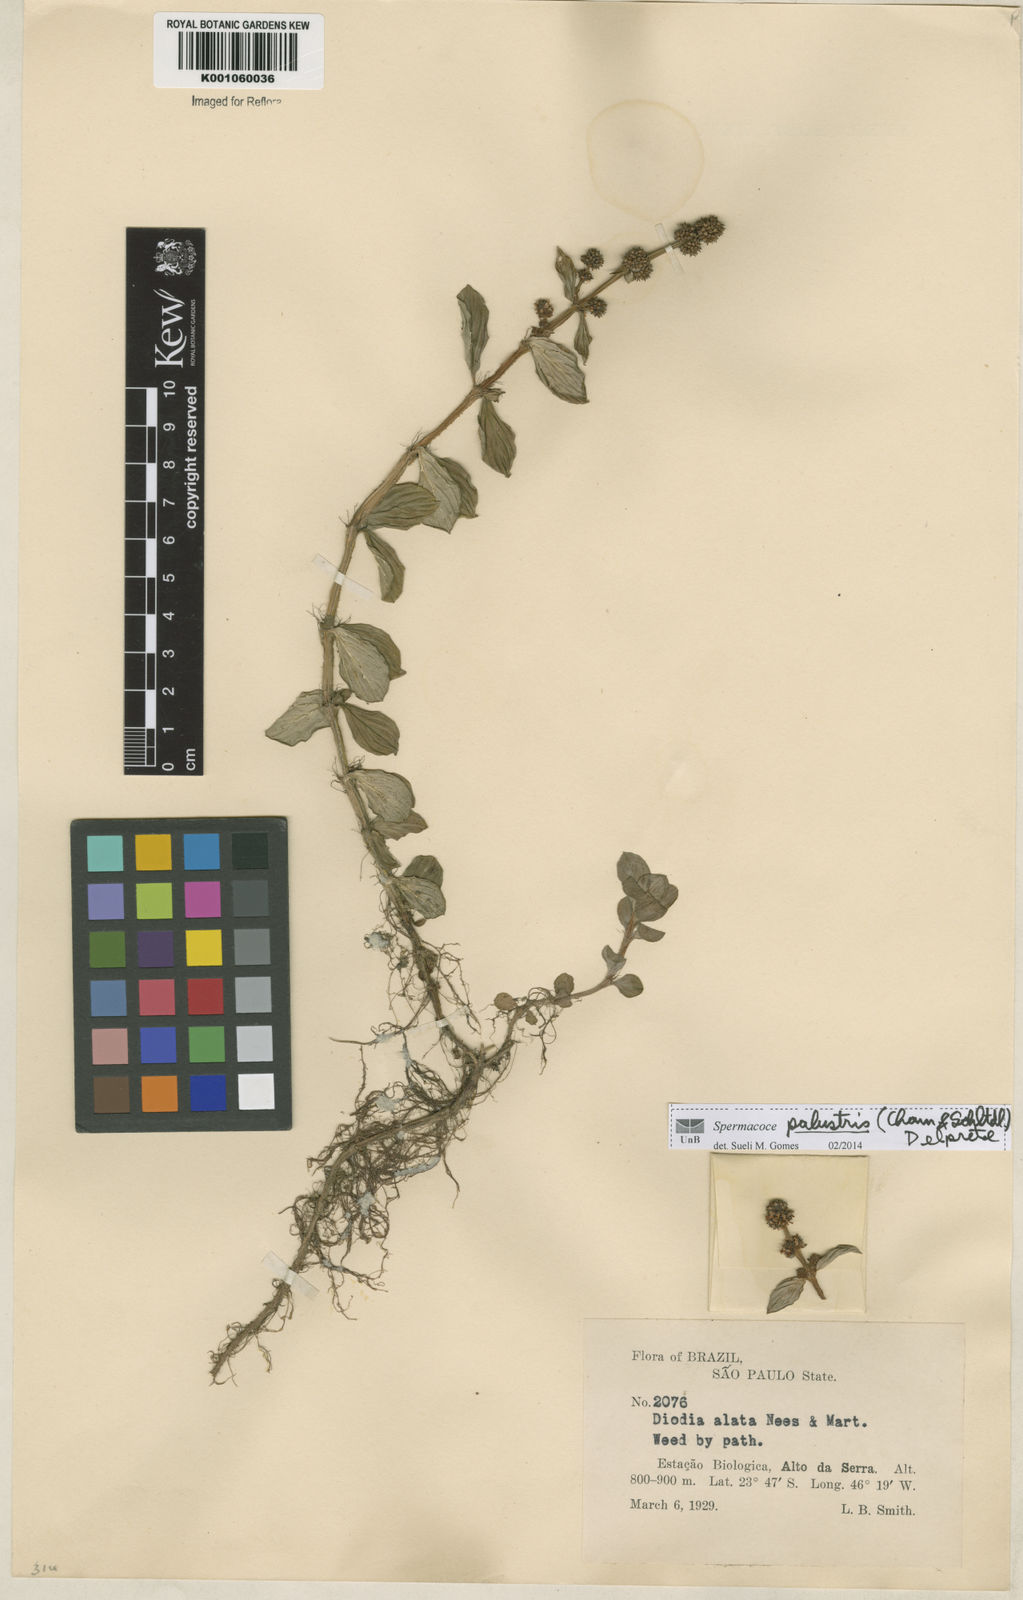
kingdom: Plantae
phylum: Tracheophyta
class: Magnoliopsida
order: Gentianales
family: Rubiaceae
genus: Galianthe
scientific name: Galianthe palustris
